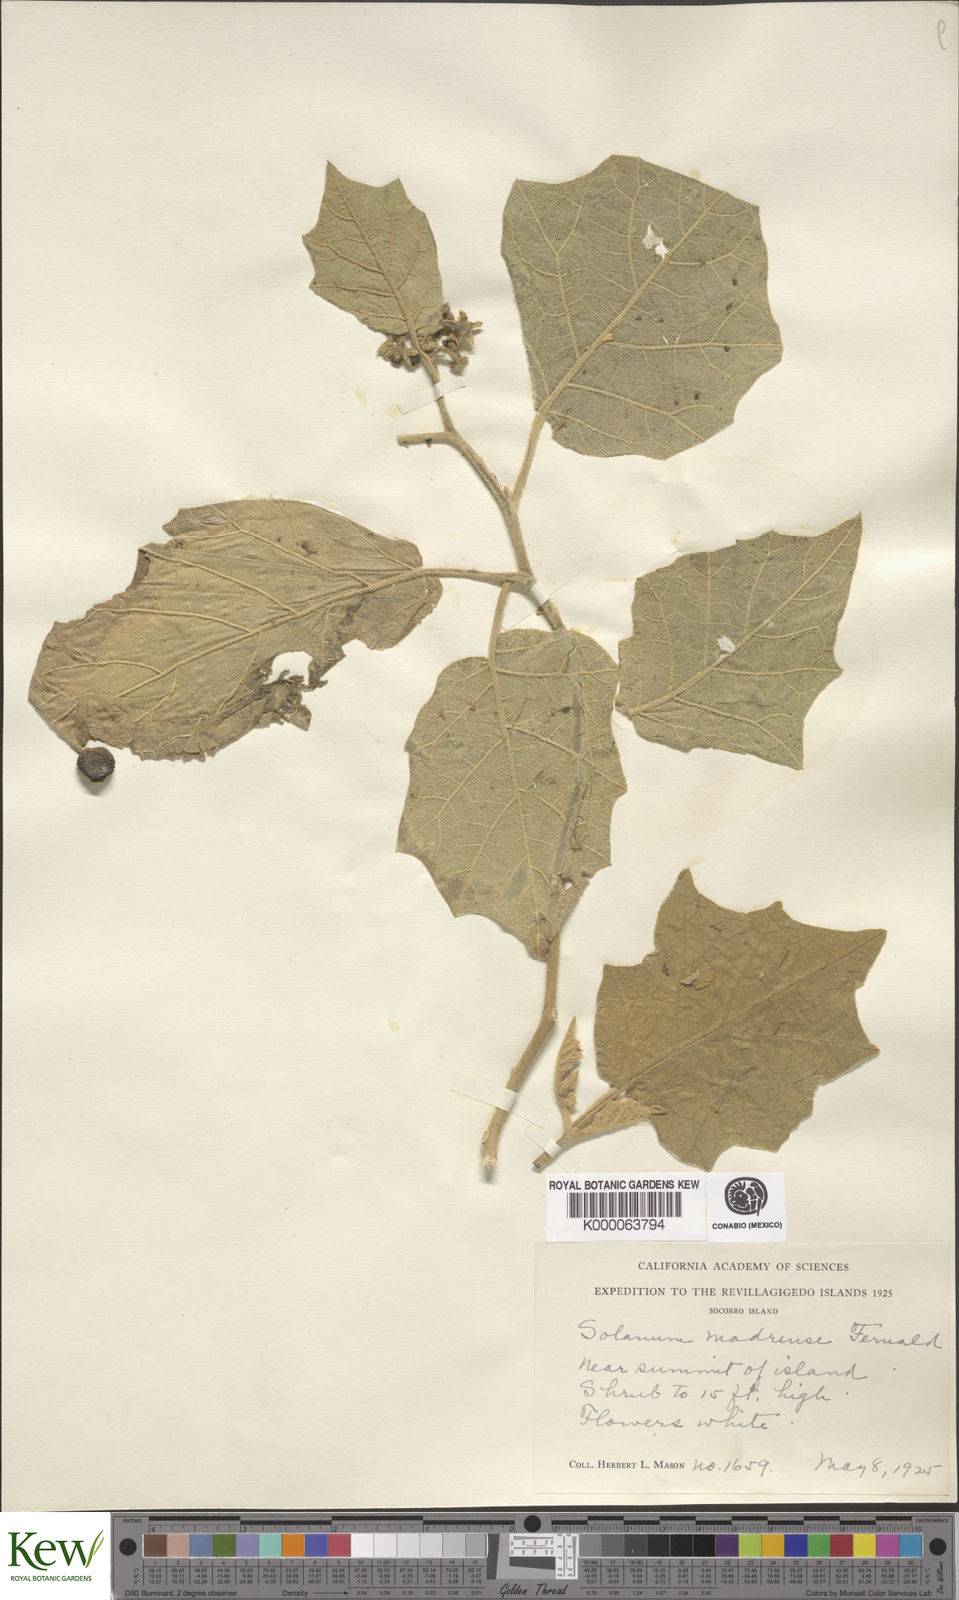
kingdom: Plantae
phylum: Tracheophyta
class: Magnoliopsida
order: Solanales
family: Solanaceae
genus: Solanum
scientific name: Solanum ferrugineum
